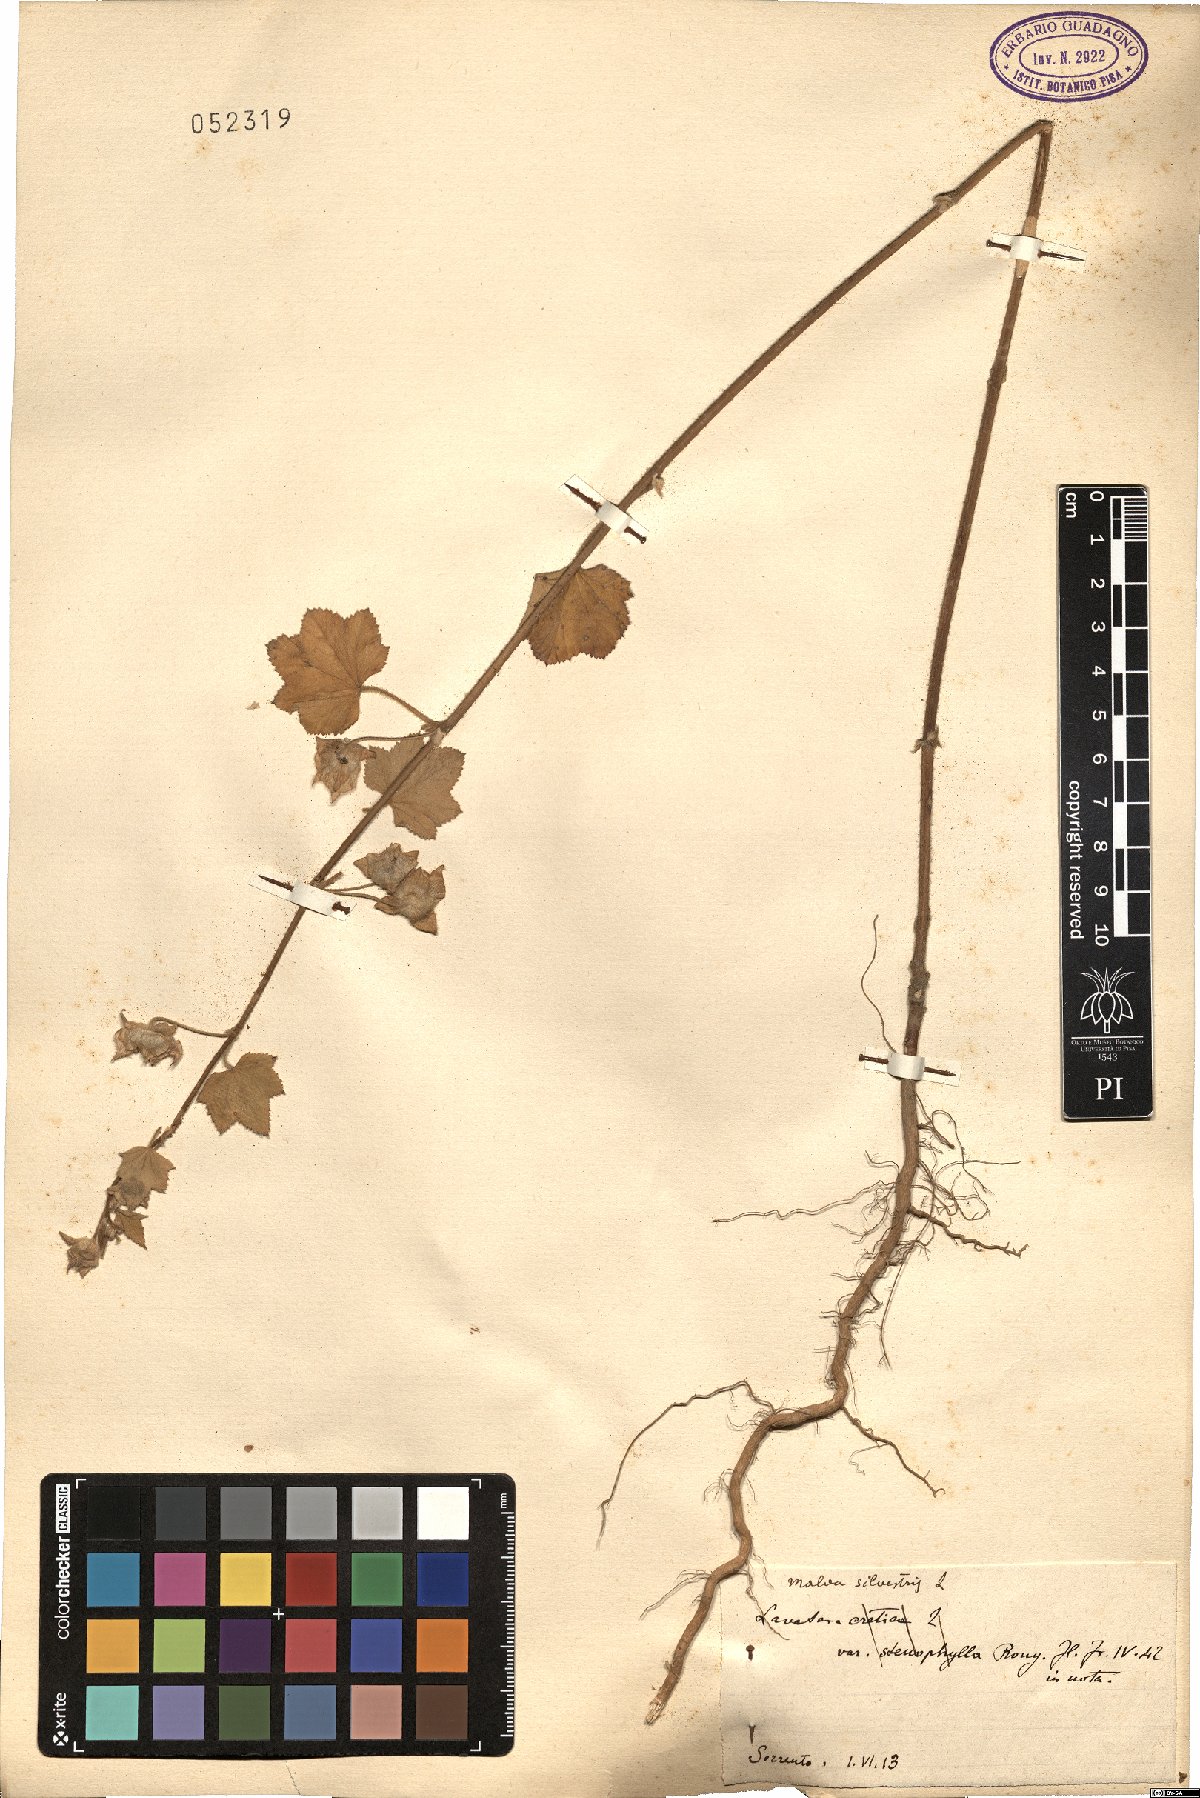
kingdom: Plantae
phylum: Tracheophyta
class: Magnoliopsida
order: Malvales
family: Malvaceae
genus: Malva
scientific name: Malva sylvestris
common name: Common mallow
